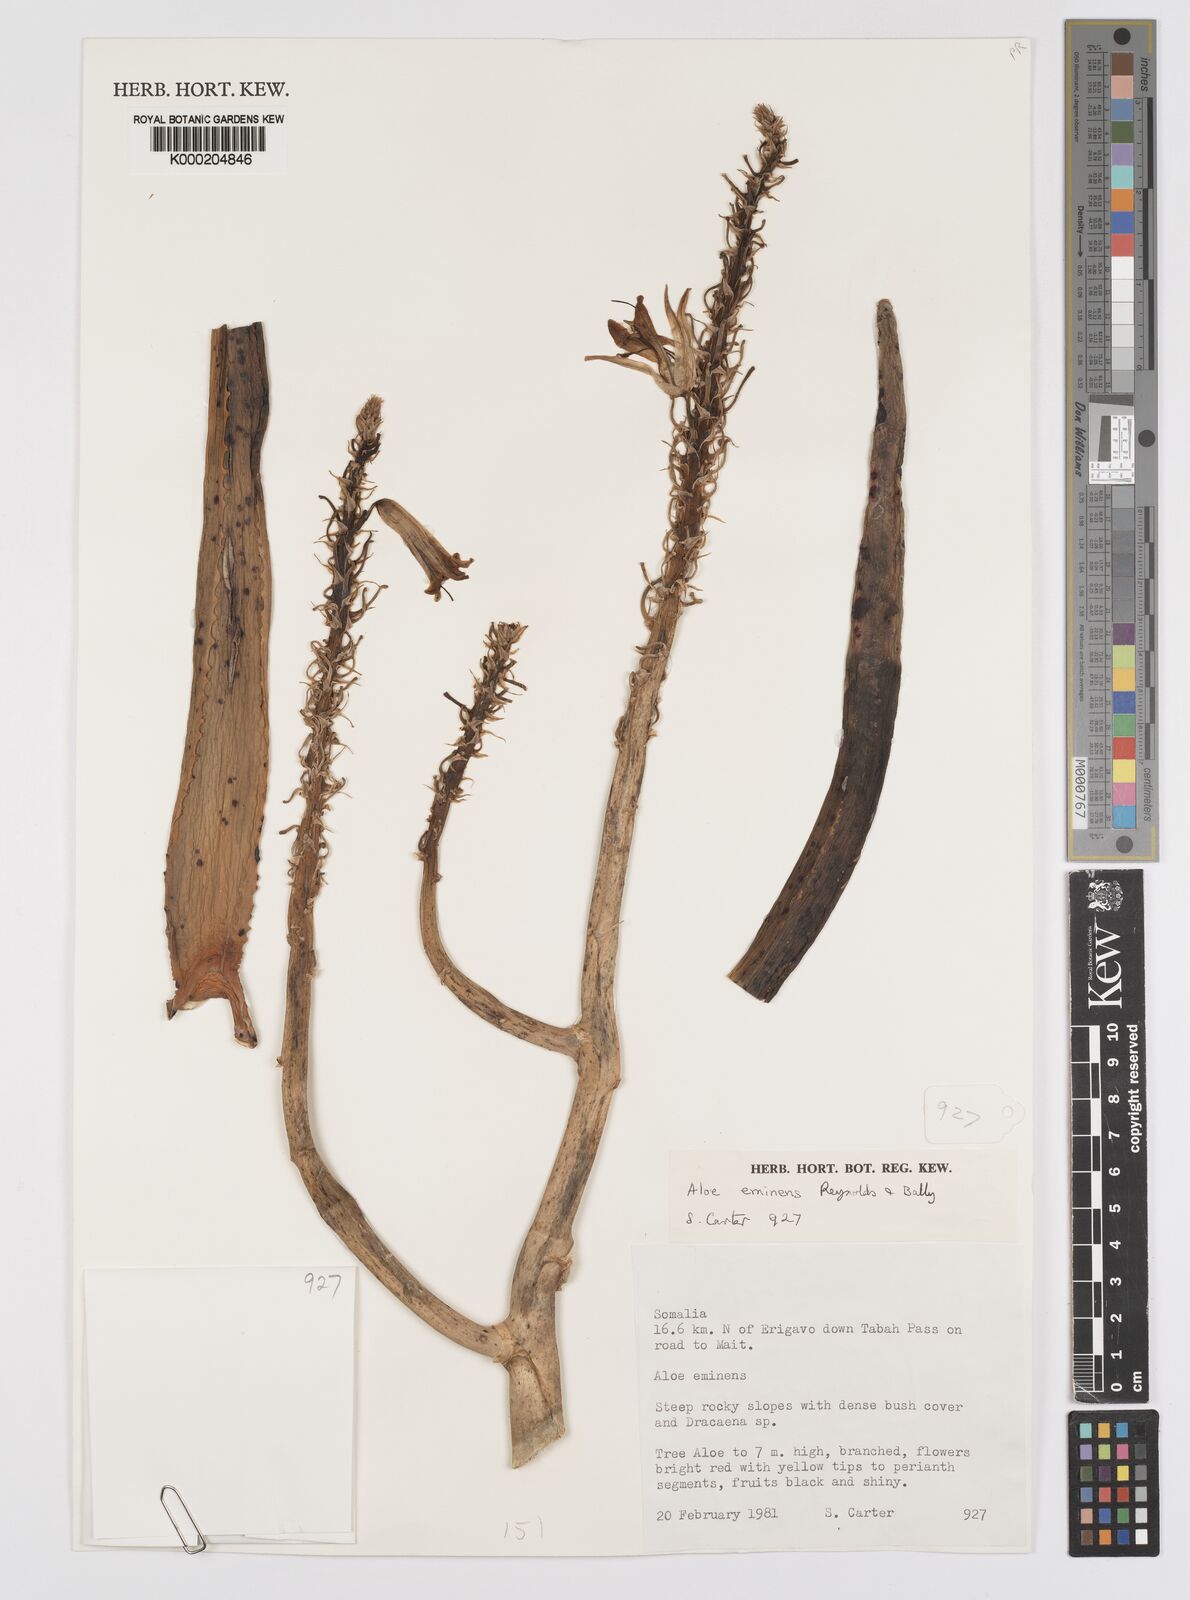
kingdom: Plantae
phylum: Tracheophyta
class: Liliopsida
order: Asparagales
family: Asphodelaceae
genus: Aloidendron
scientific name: Aloidendron eminens
